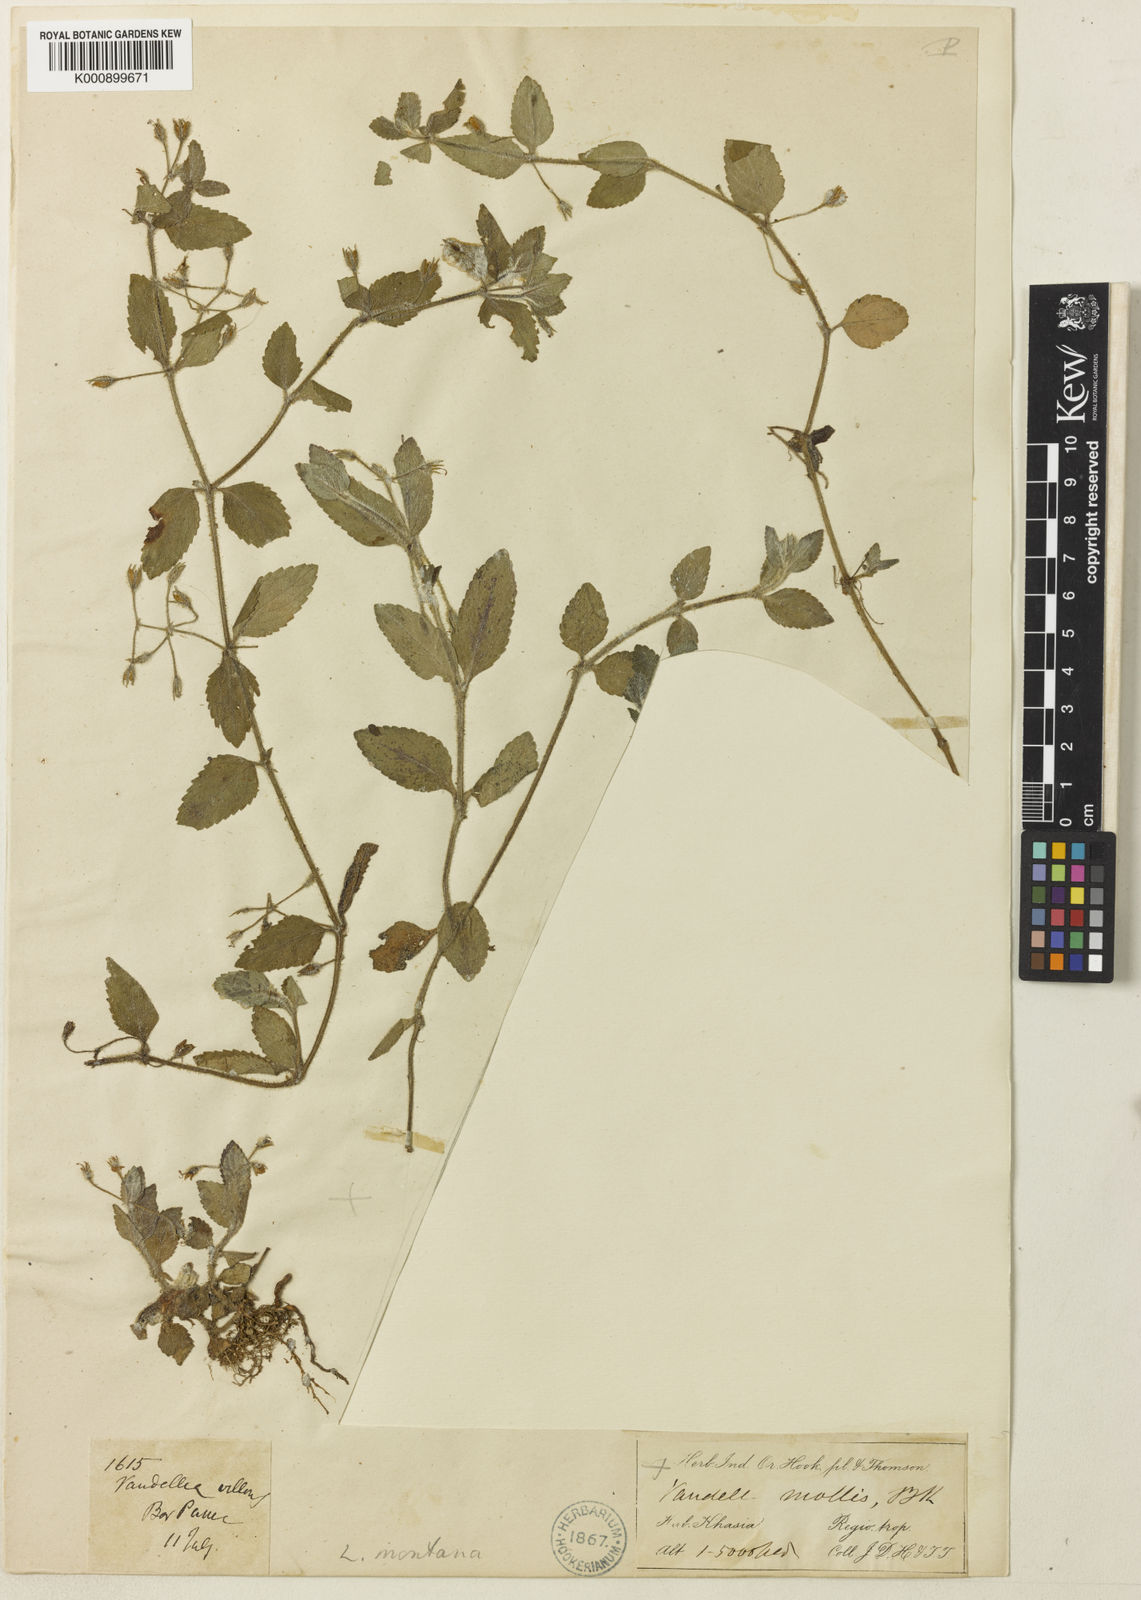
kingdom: Plantae
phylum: Tracheophyta
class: Magnoliopsida
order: Lamiales
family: Linderniaceae
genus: Vandellia
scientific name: Vandellia montana
